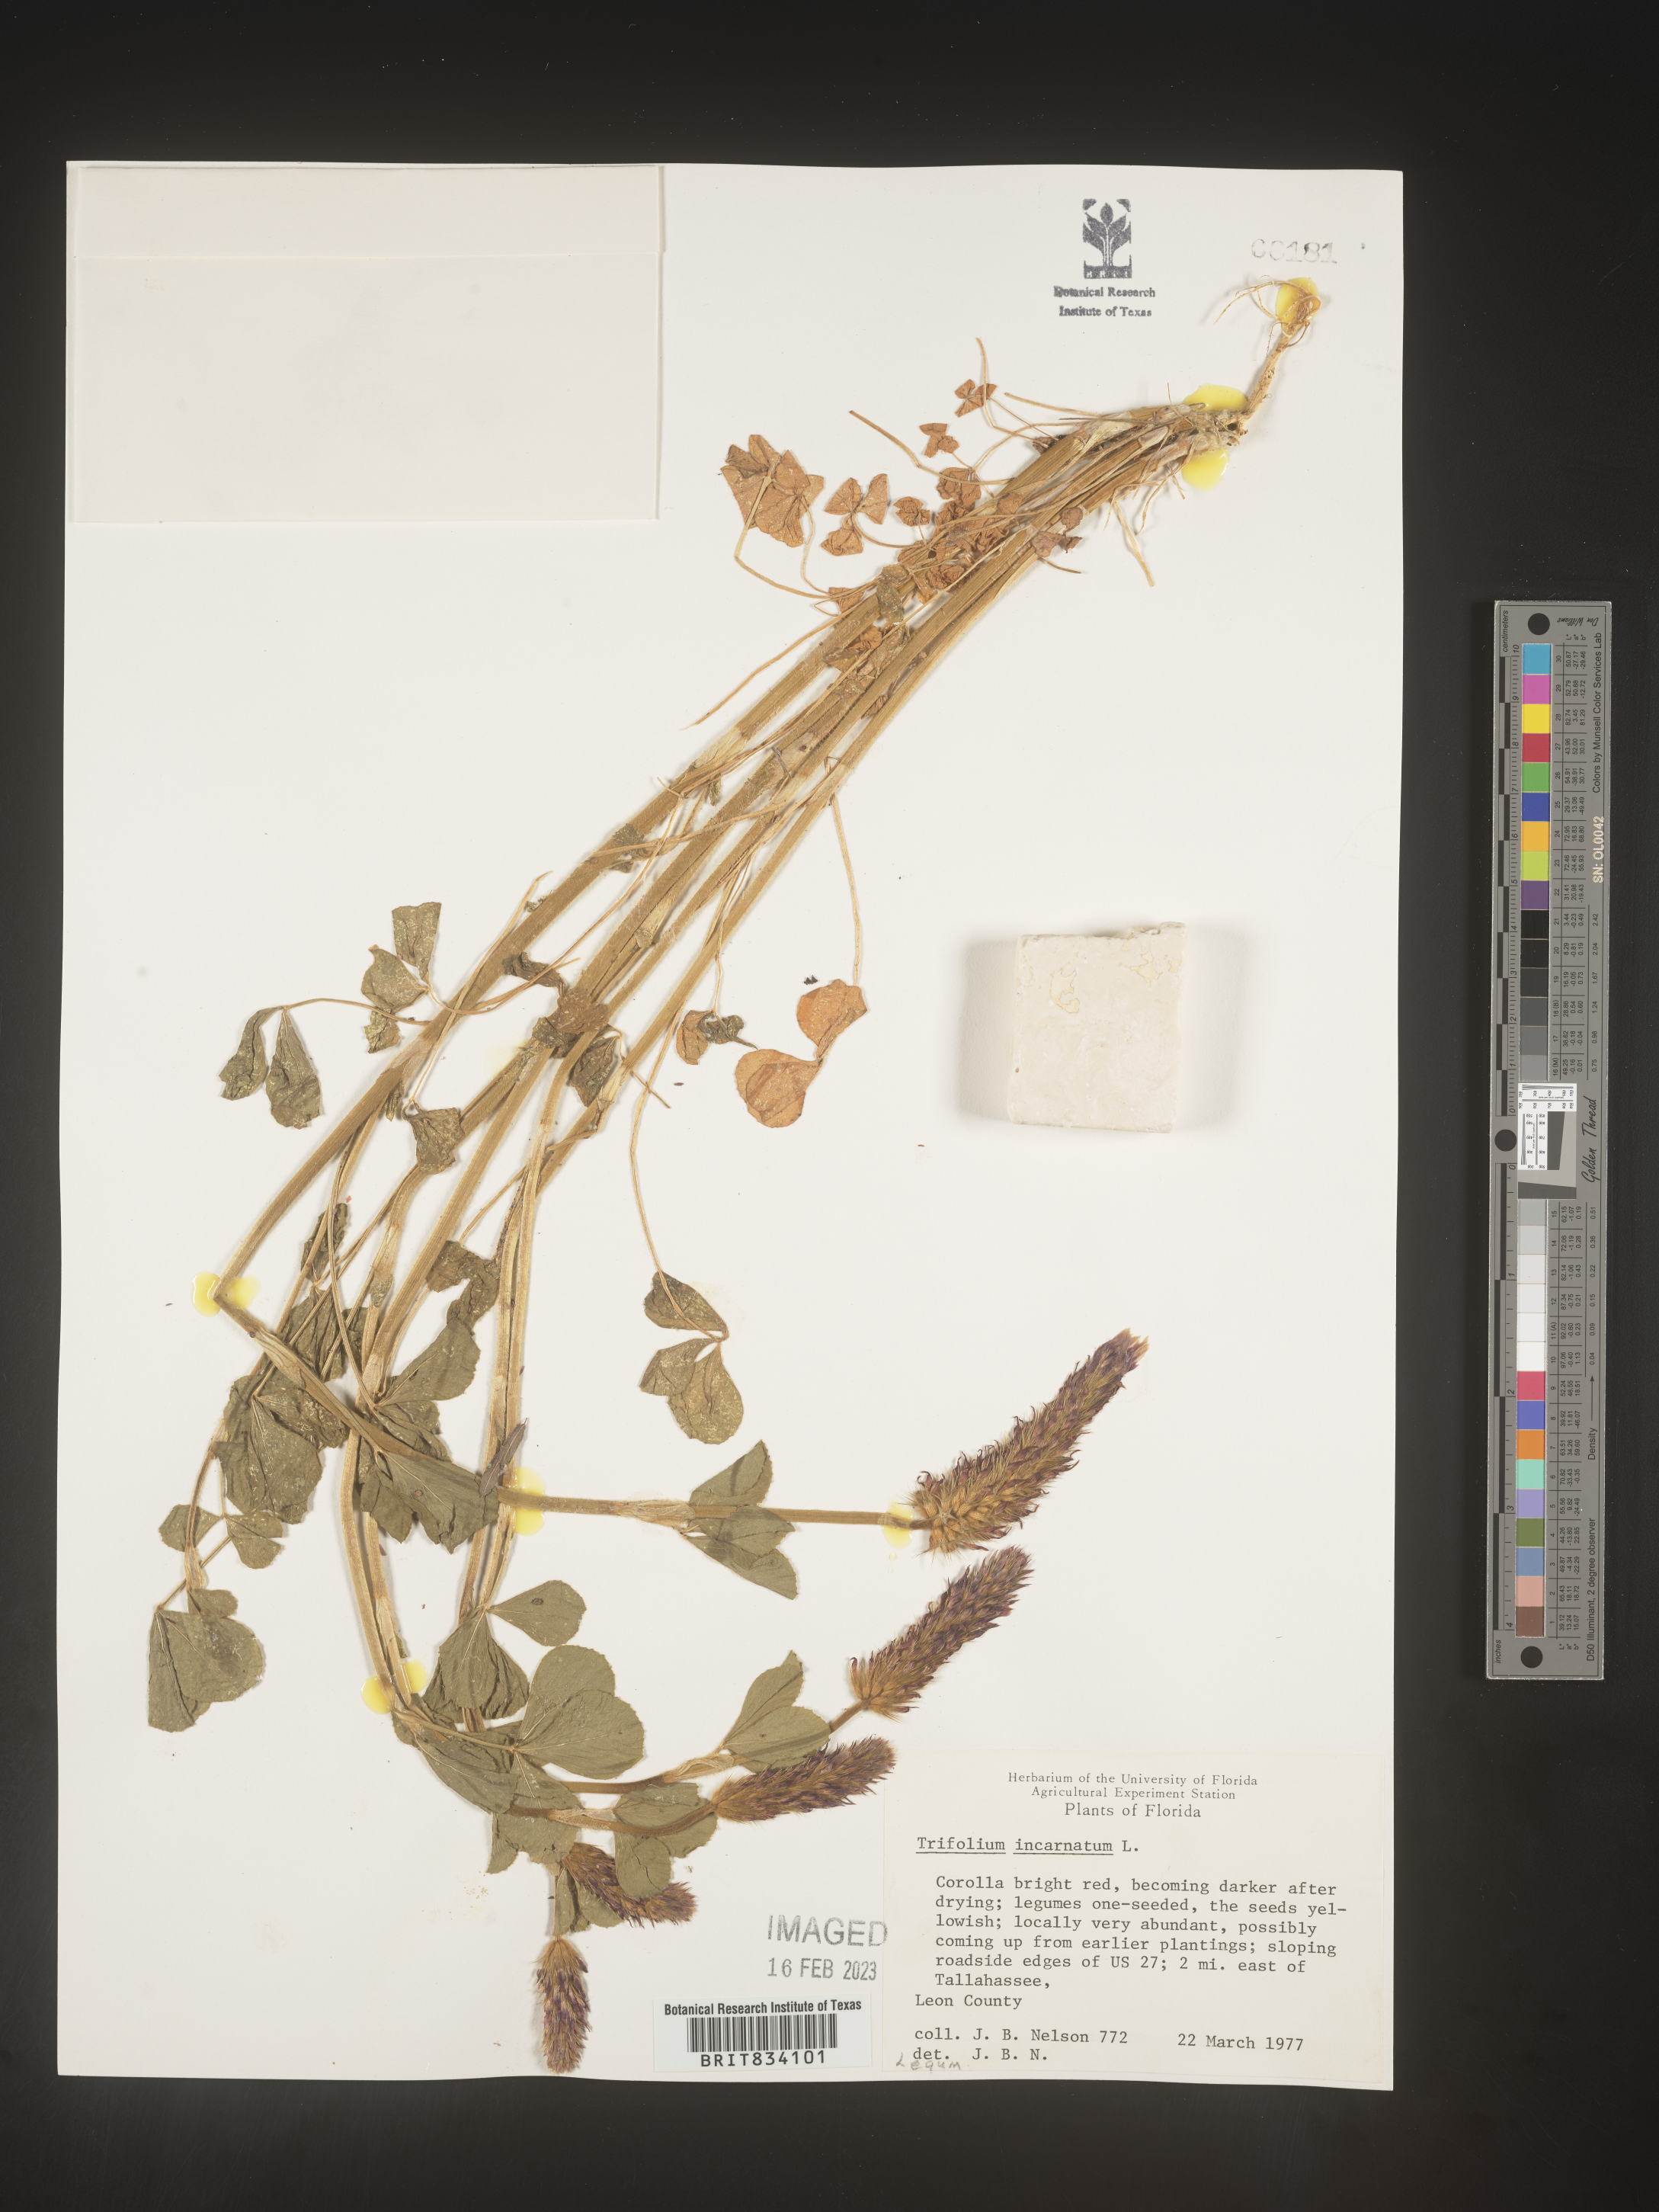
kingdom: Plantae
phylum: Tracheophyta
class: Magnoliopsida
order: Fabales
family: Fabaceae
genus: Trifolium
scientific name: Trifolium incarnatum
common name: Crimson clover
